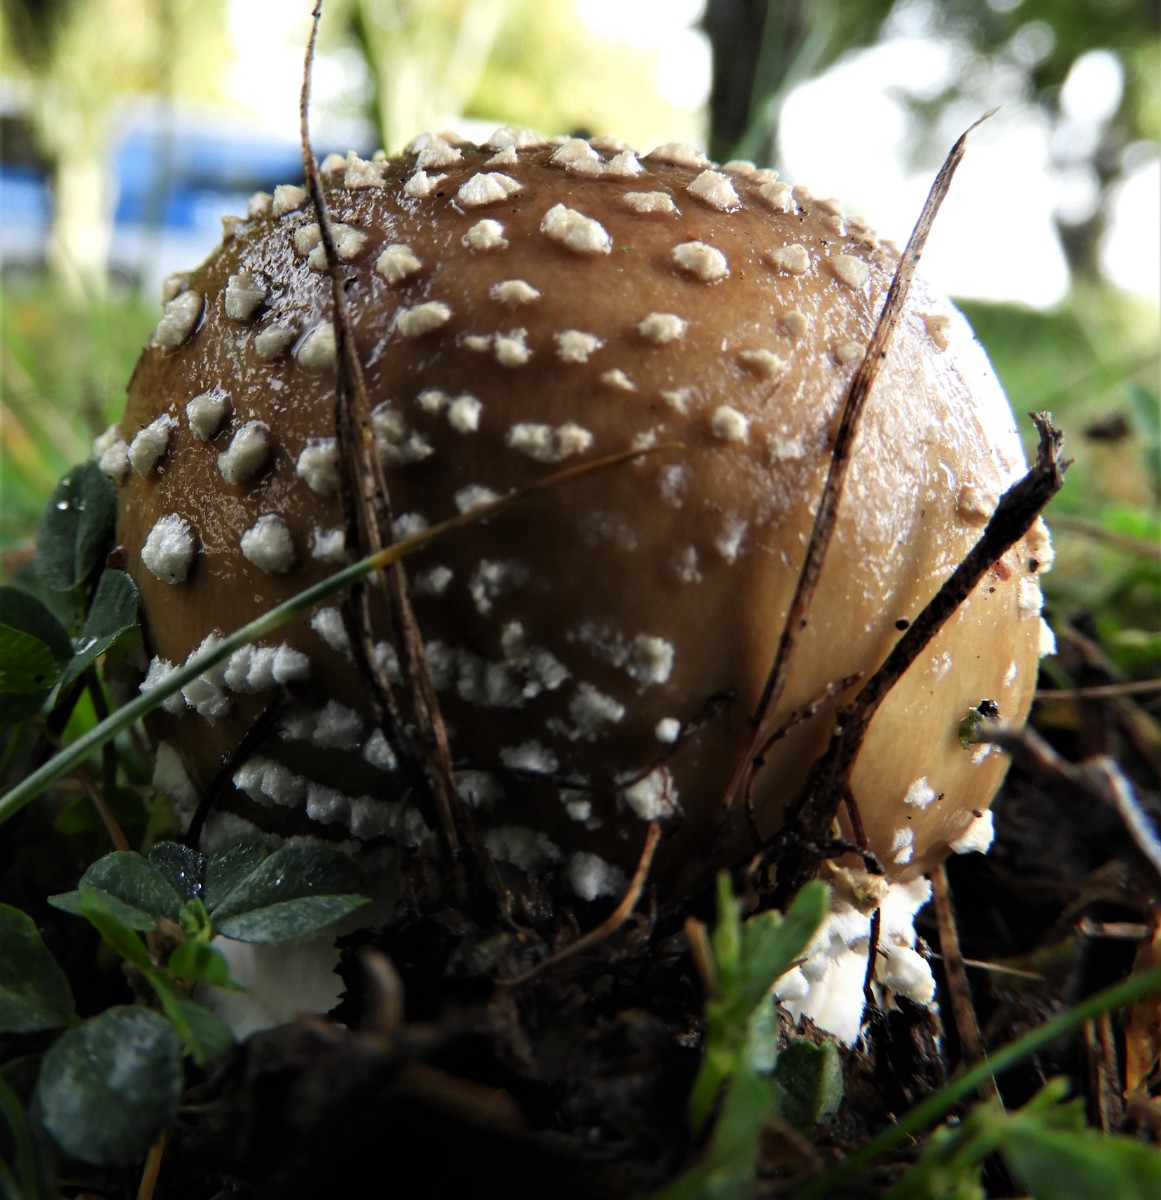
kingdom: Fungi
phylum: Basidiomycota
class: Agaricomycetes
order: Agaricales
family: Amanitaceae
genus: Amanita
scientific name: Amanita pantherina
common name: panter-fluesvamp
